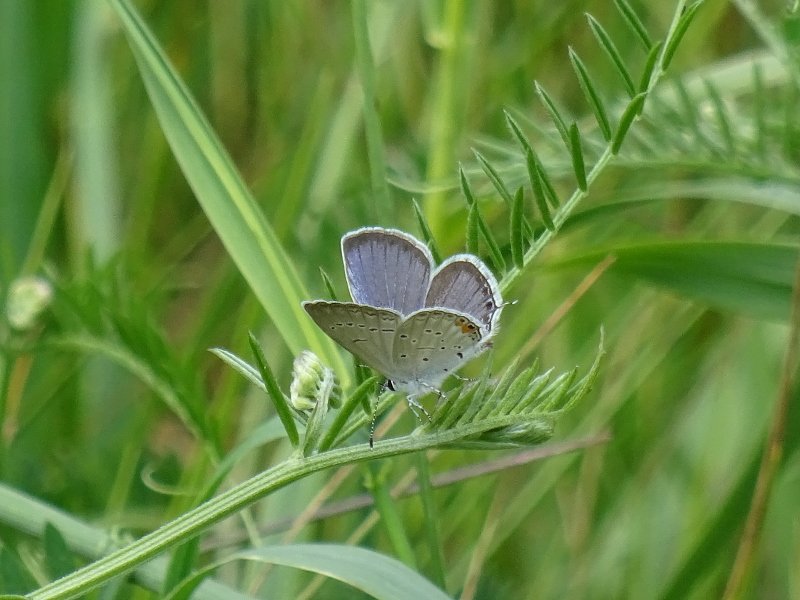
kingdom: Animalia
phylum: Arthropoda
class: Insecta
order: Lepidoptera
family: Lycaenidae
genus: Elkalyce
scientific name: Elkalyce comyntas
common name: Eastern Tailed-Blue
